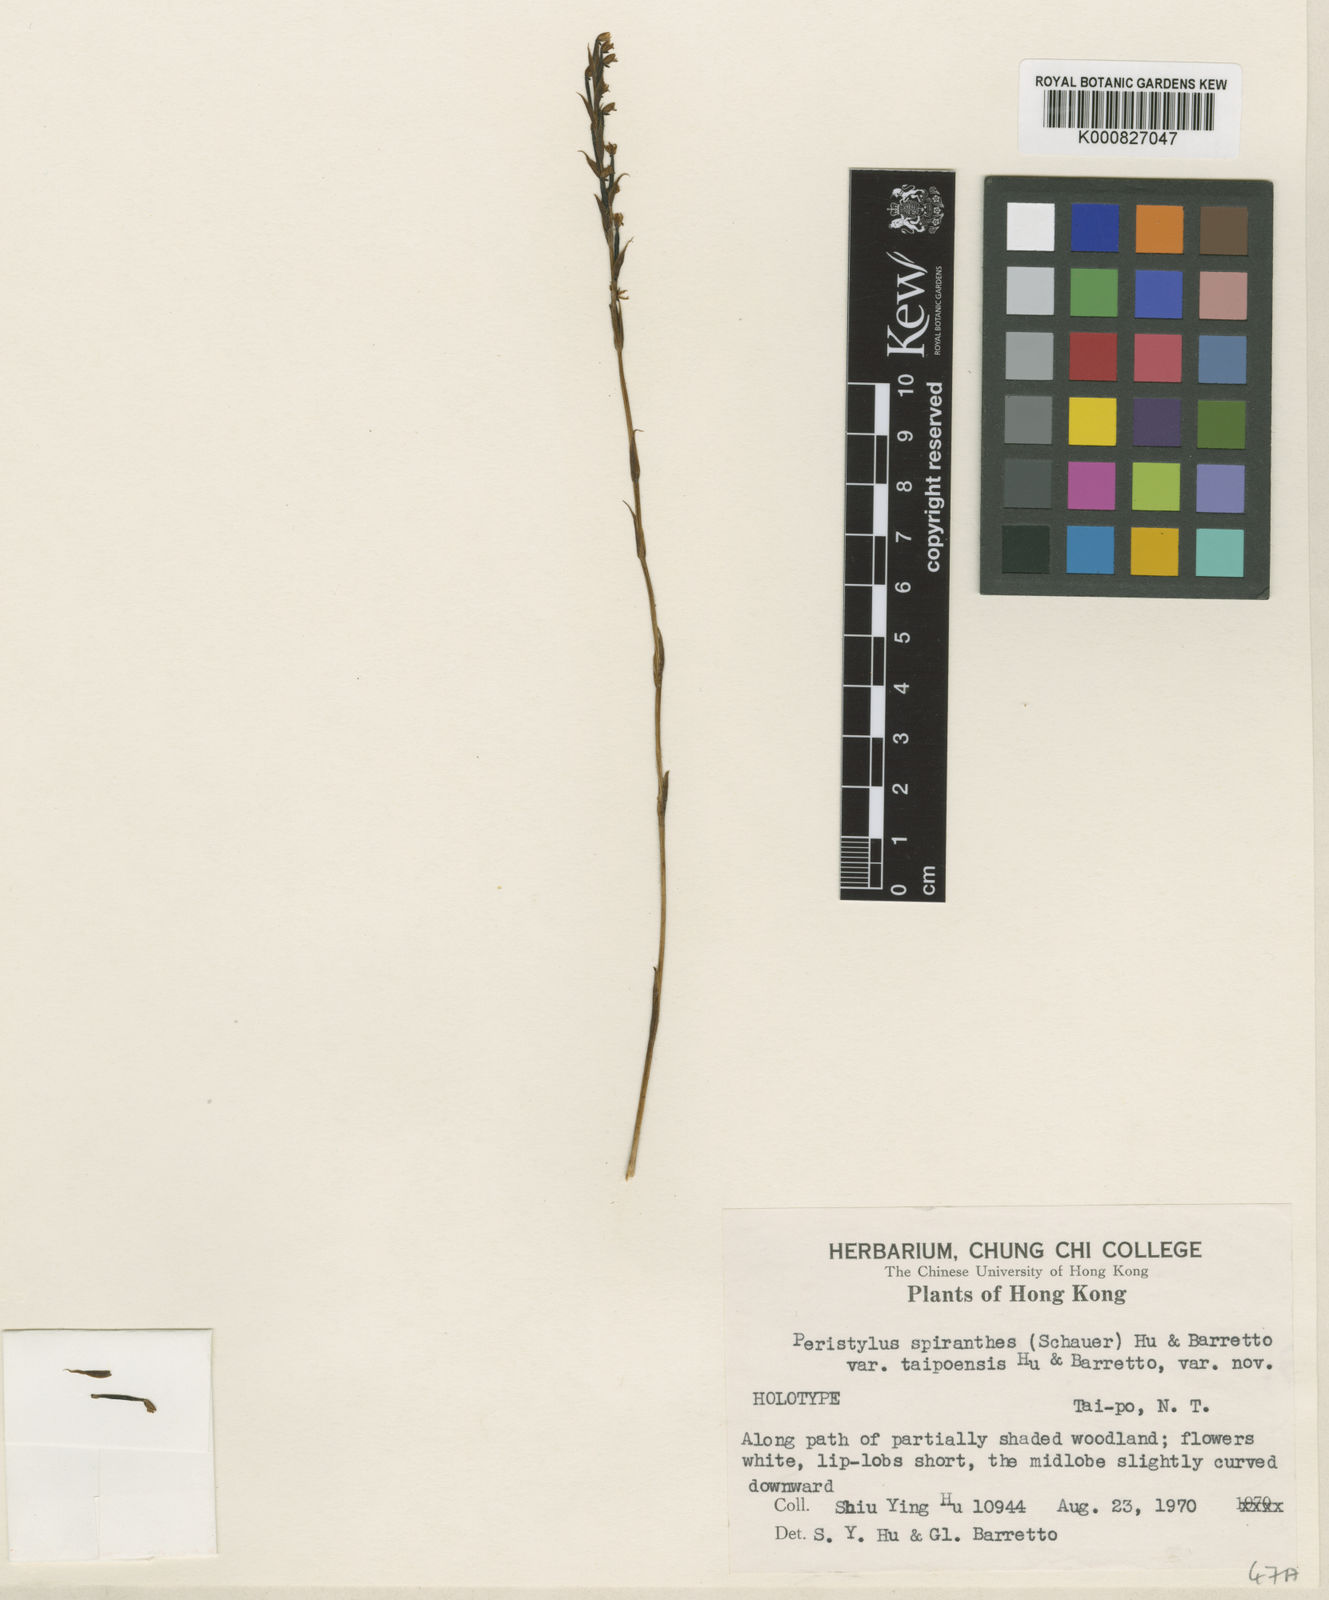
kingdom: Plantae
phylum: Tracheophyta
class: Liliopsida
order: Asparagales
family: Orchidaceae
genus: Peristylus
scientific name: Peristylus intrudens
